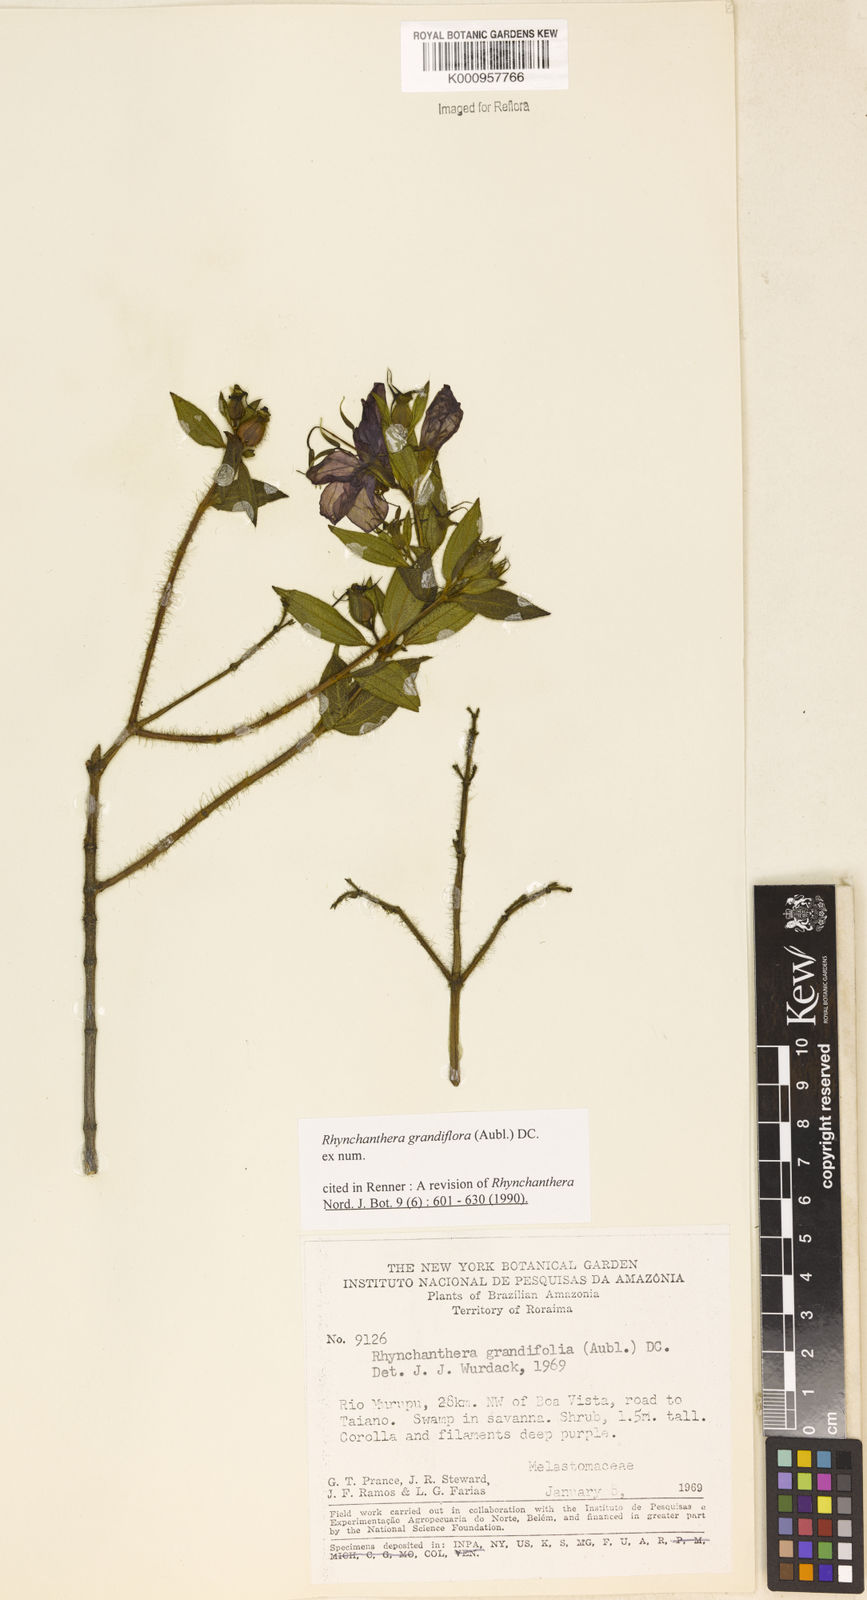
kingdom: Plantae
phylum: Tracheophyta
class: Magnoliopsida
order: Myrtales
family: Melastomataceae
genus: Rhynchanthera
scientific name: Rhynchanthera grandiflora
